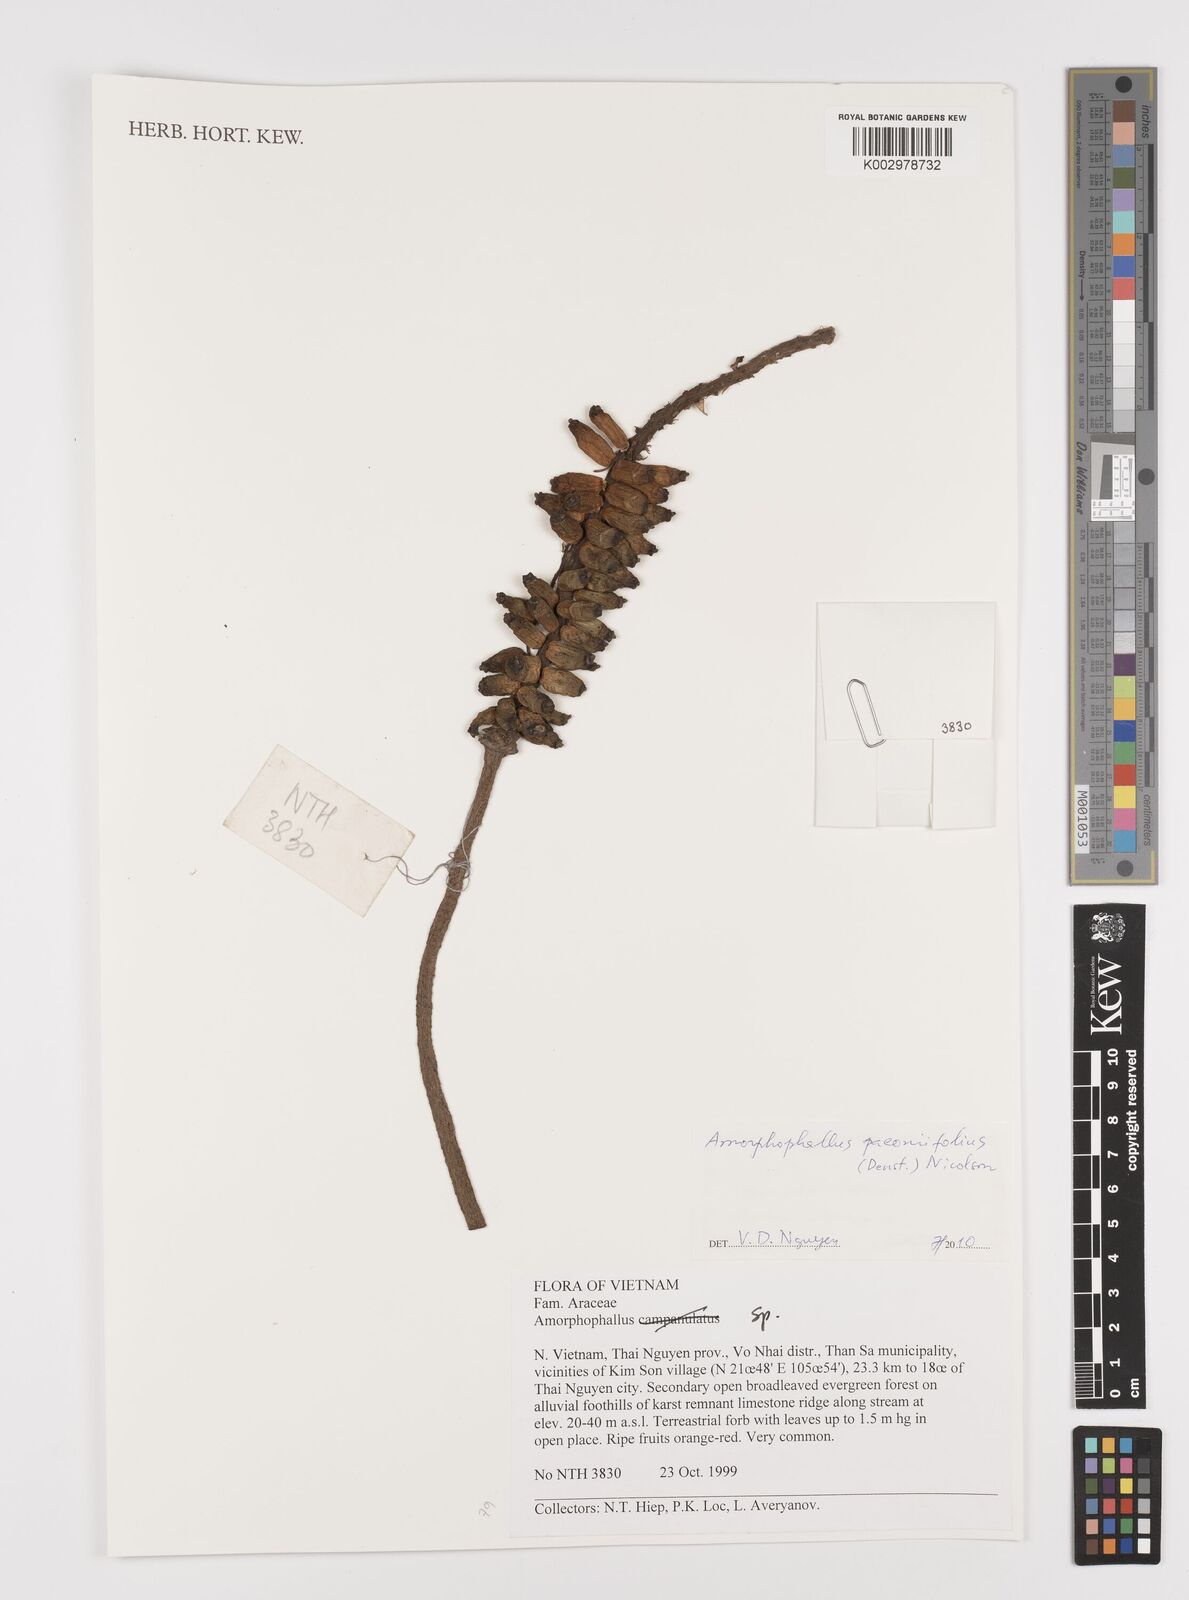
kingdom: Plantae
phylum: Tracheophyta
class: Liliopsida
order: Alismatales
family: Araceae
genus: Amorphophallus
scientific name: Amorphophallus paeoniifolius
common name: Telinga-potato
